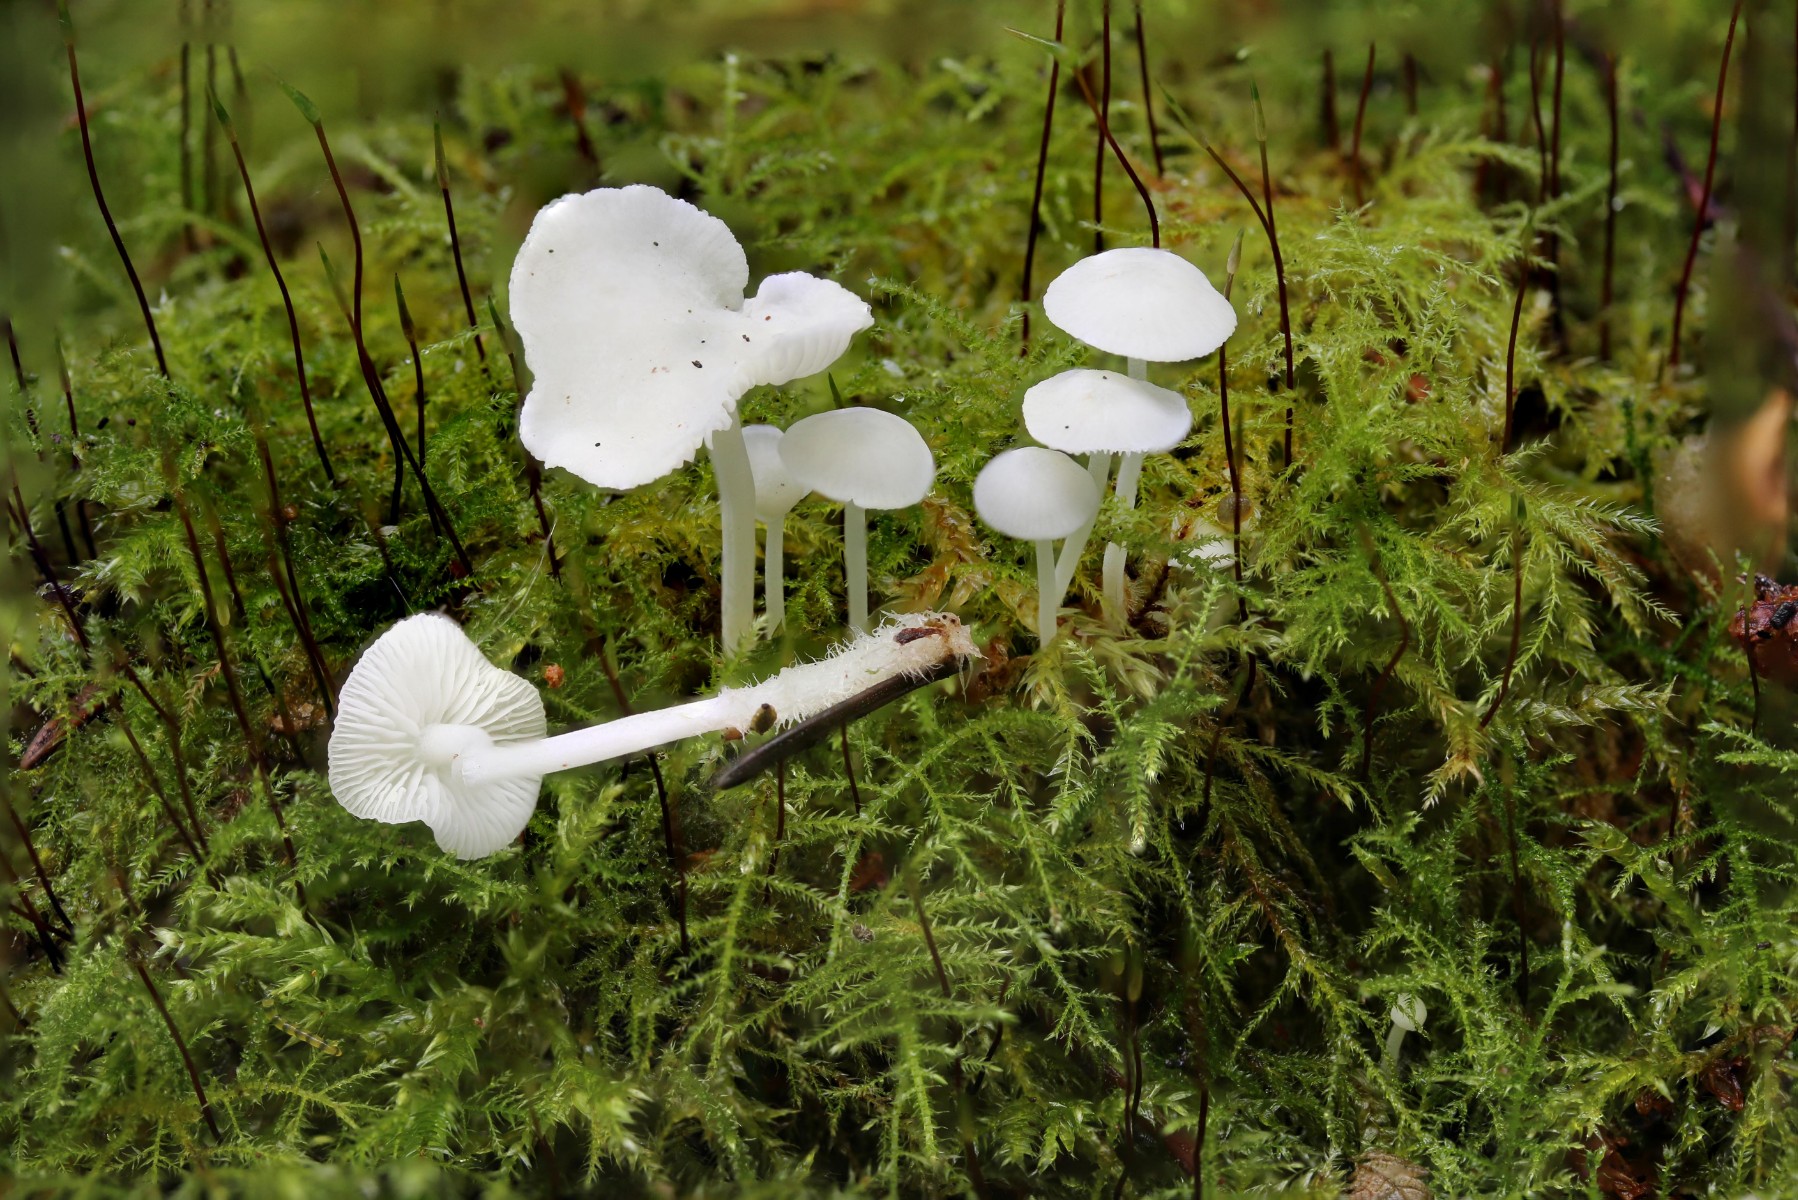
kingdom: Fungi
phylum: Basidiomycota
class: Agaricomycetes
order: Agaricales
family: Mycenaceae
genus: Hemimycena
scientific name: Hemimycena lactea
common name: mælkehvid huesvamp
